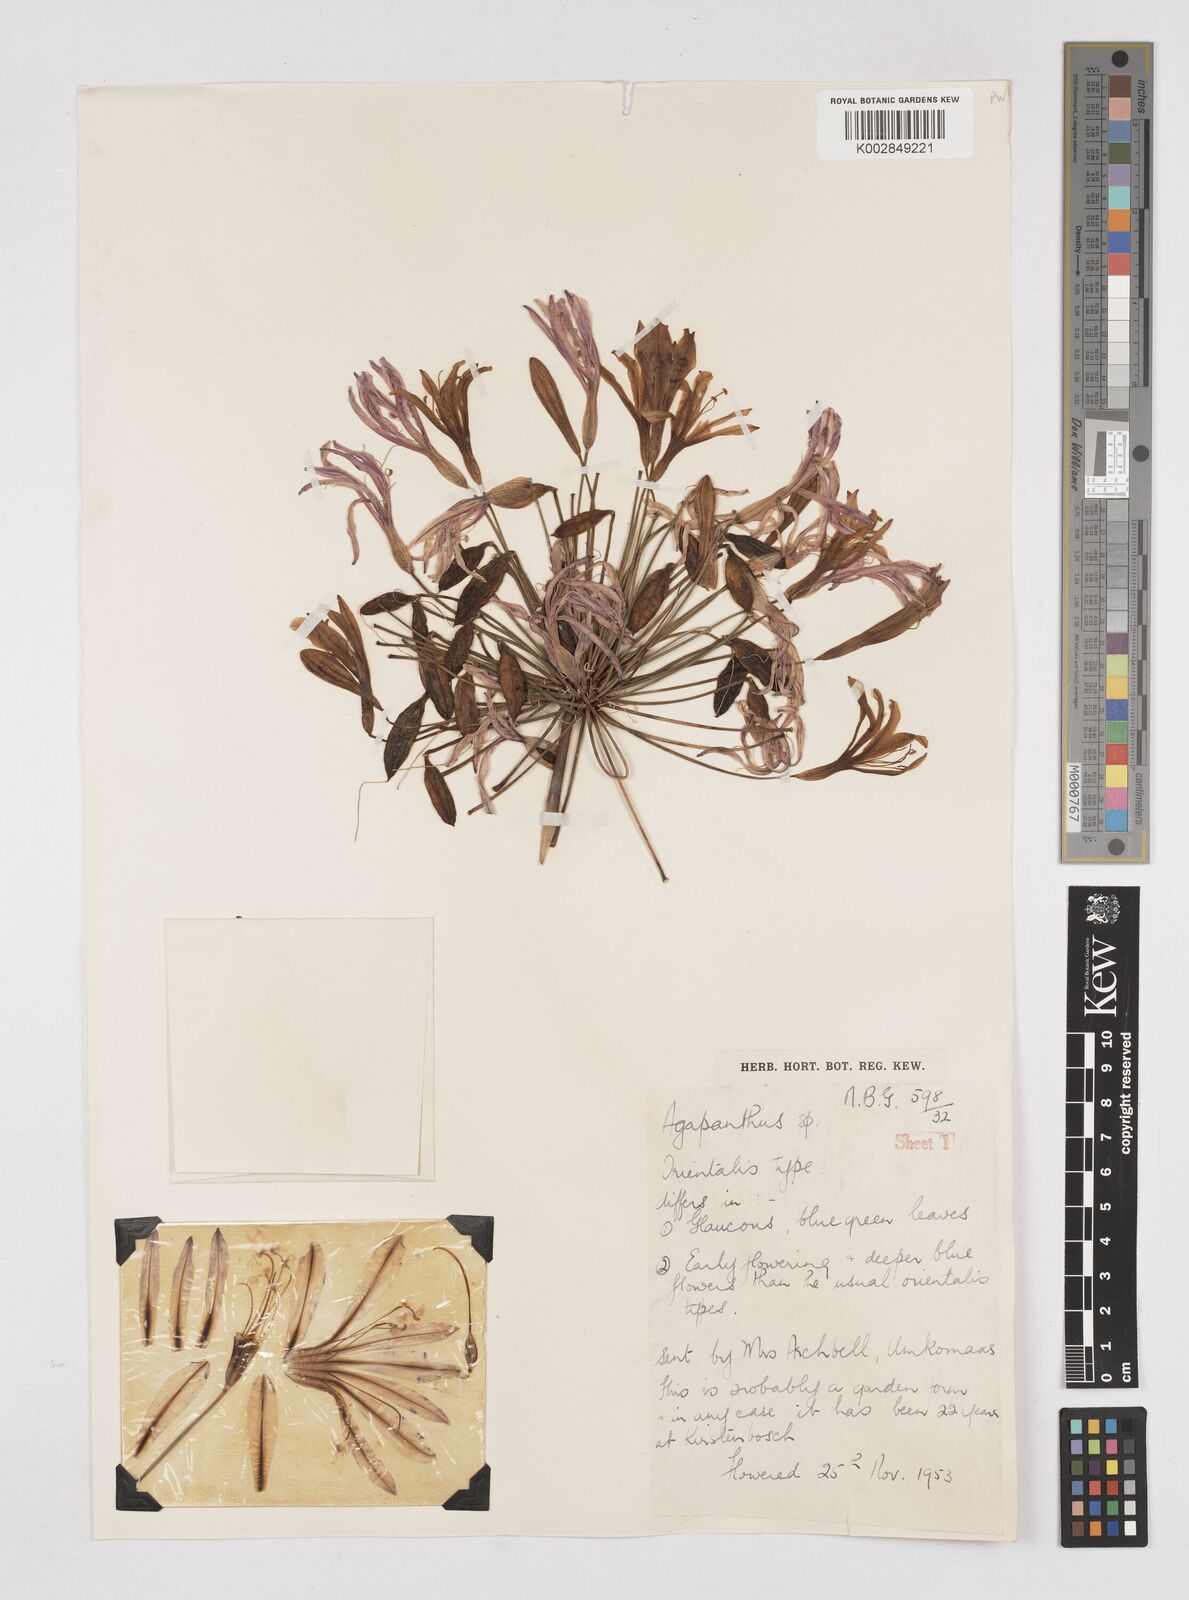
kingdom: Plantae
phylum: Tracheophyta
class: Liliopsida
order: Asparagales
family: Amaryllidaceae
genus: Agapanthus
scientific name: Agapanthus praecox
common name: African-lily
